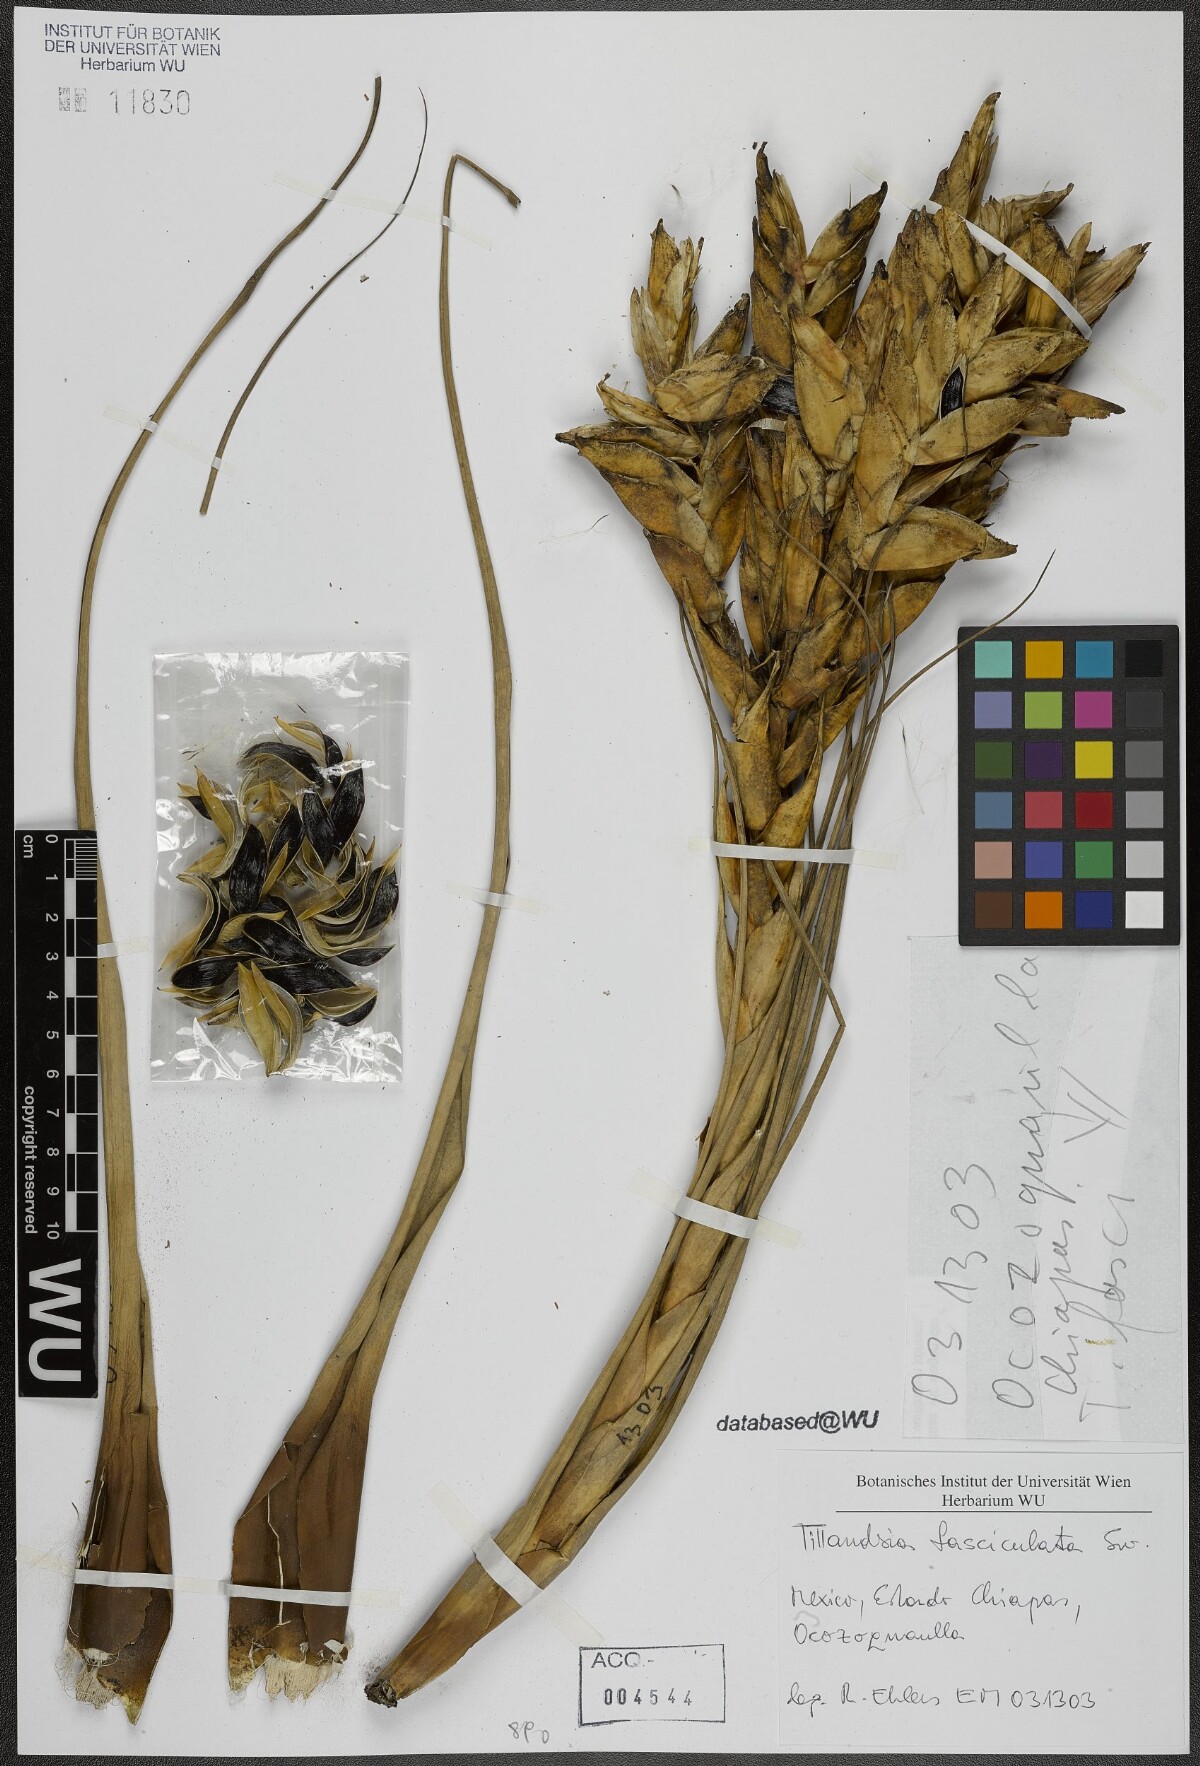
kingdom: Plantae
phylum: Tracheophyta
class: Liliopsida
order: Poales
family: Bromeliaceae
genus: Tillandsia
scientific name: Tillandsia fasciculata
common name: Giant airplant
